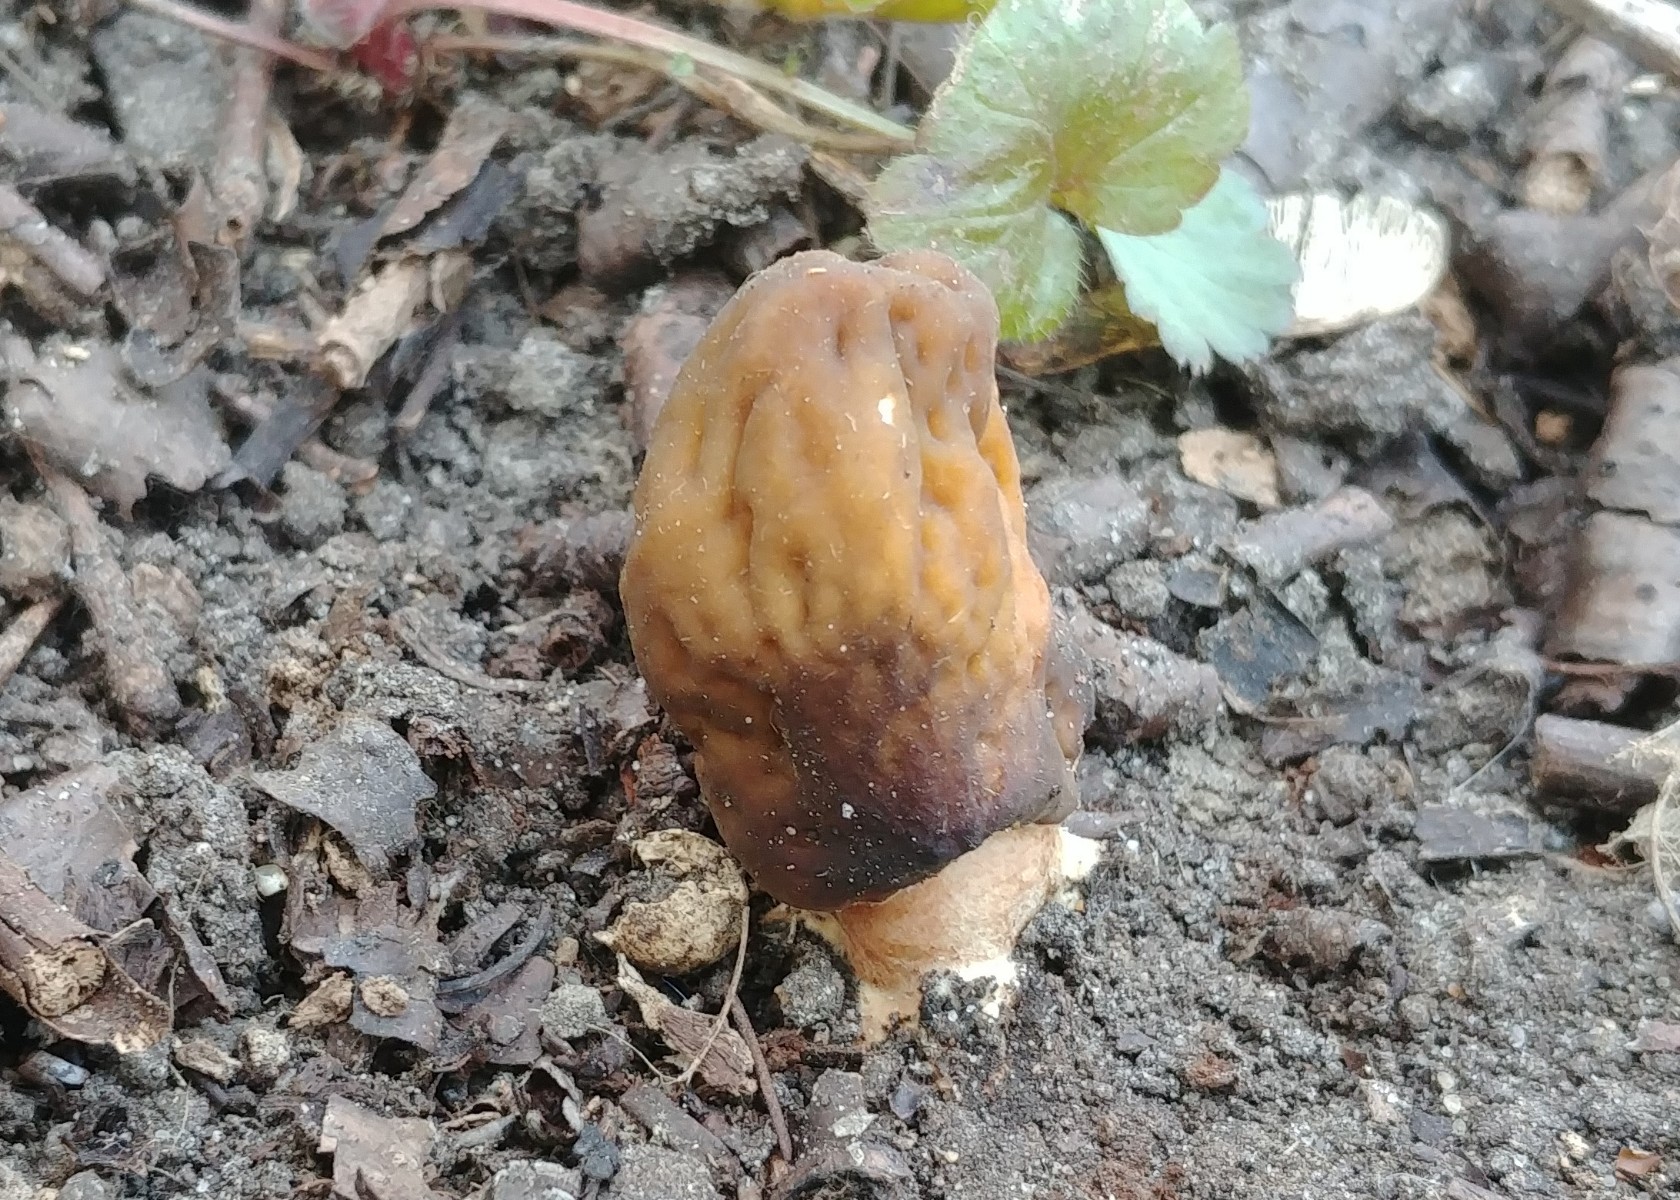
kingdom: Fungi
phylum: Ascomycota
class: Pezizomycetes
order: Pezizales
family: Morchellaceae
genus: Verpa
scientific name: Verpa conica
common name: glat klokkemorkel
